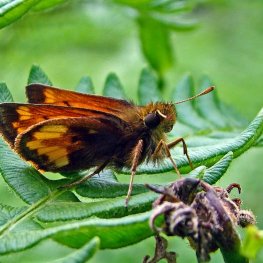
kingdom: Animalia
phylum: Arthropoda
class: Insecta
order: Lepidoptera
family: Hesperiidae
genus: Lon
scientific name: Lon hobomok
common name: Hobomok Skipper
